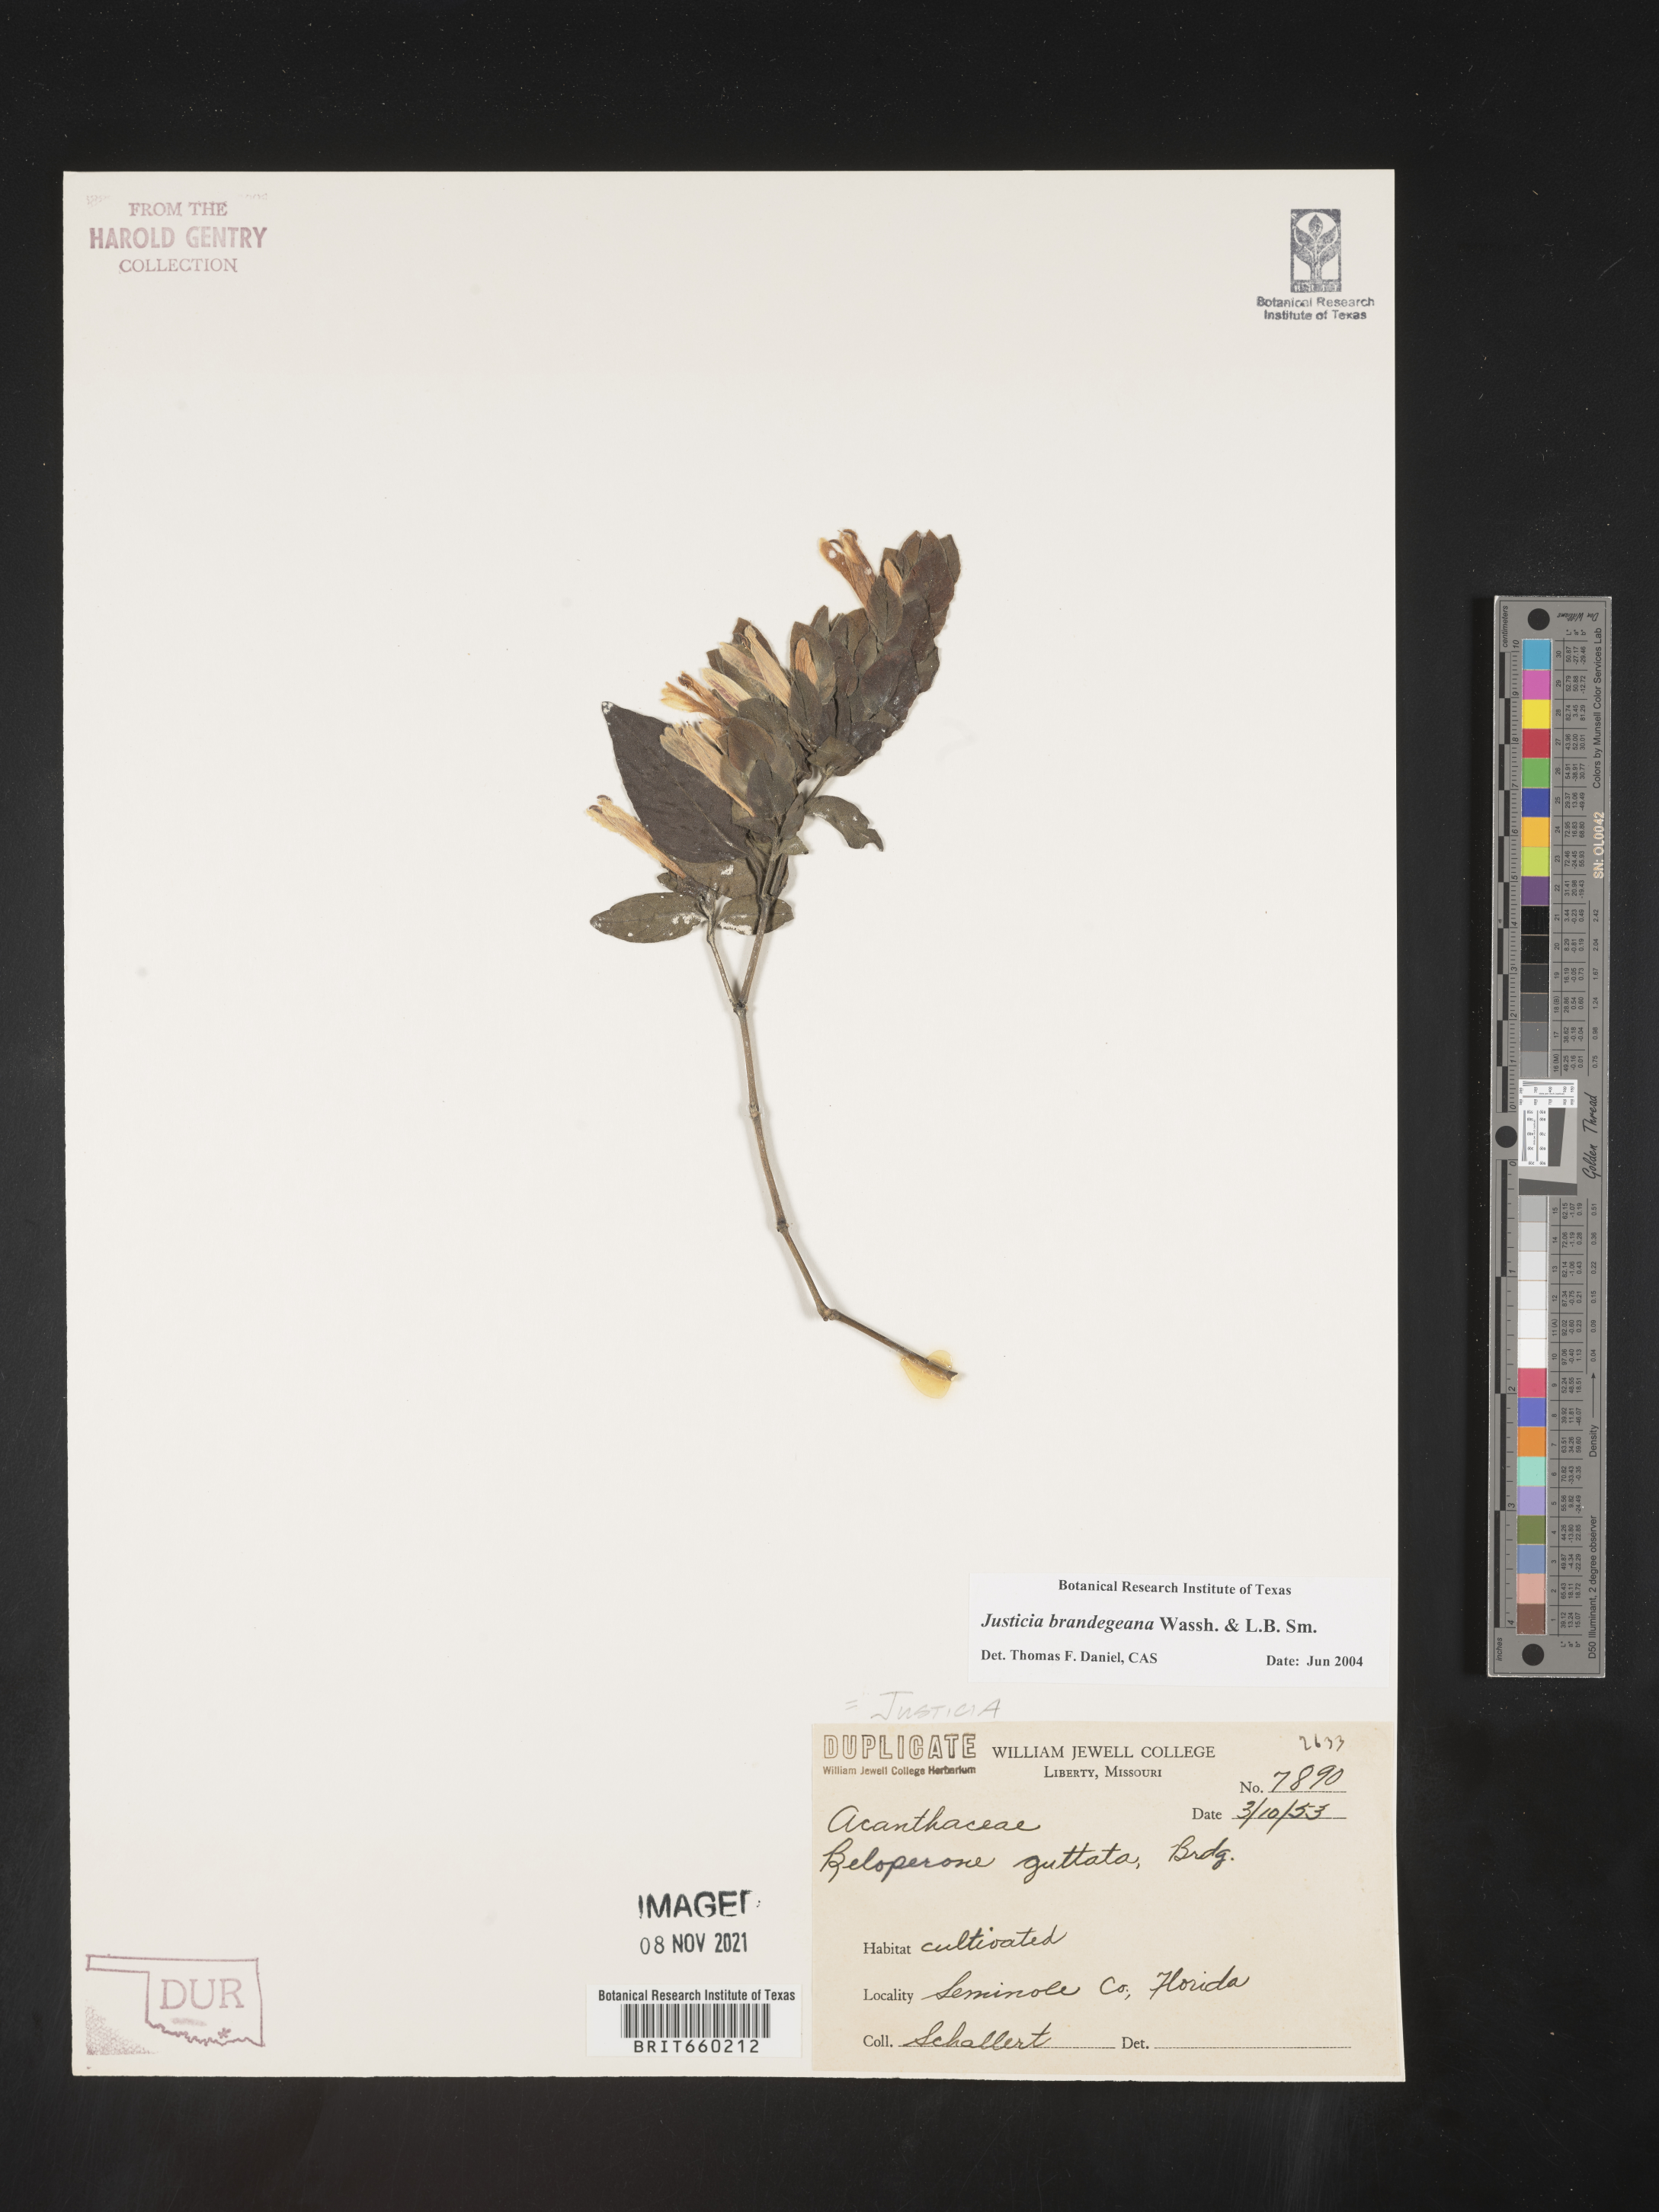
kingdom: Plantae
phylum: Tracheophyta
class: Magnoliopsida
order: Lamiales
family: Acanthaceae
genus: Justicia
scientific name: Justicia
